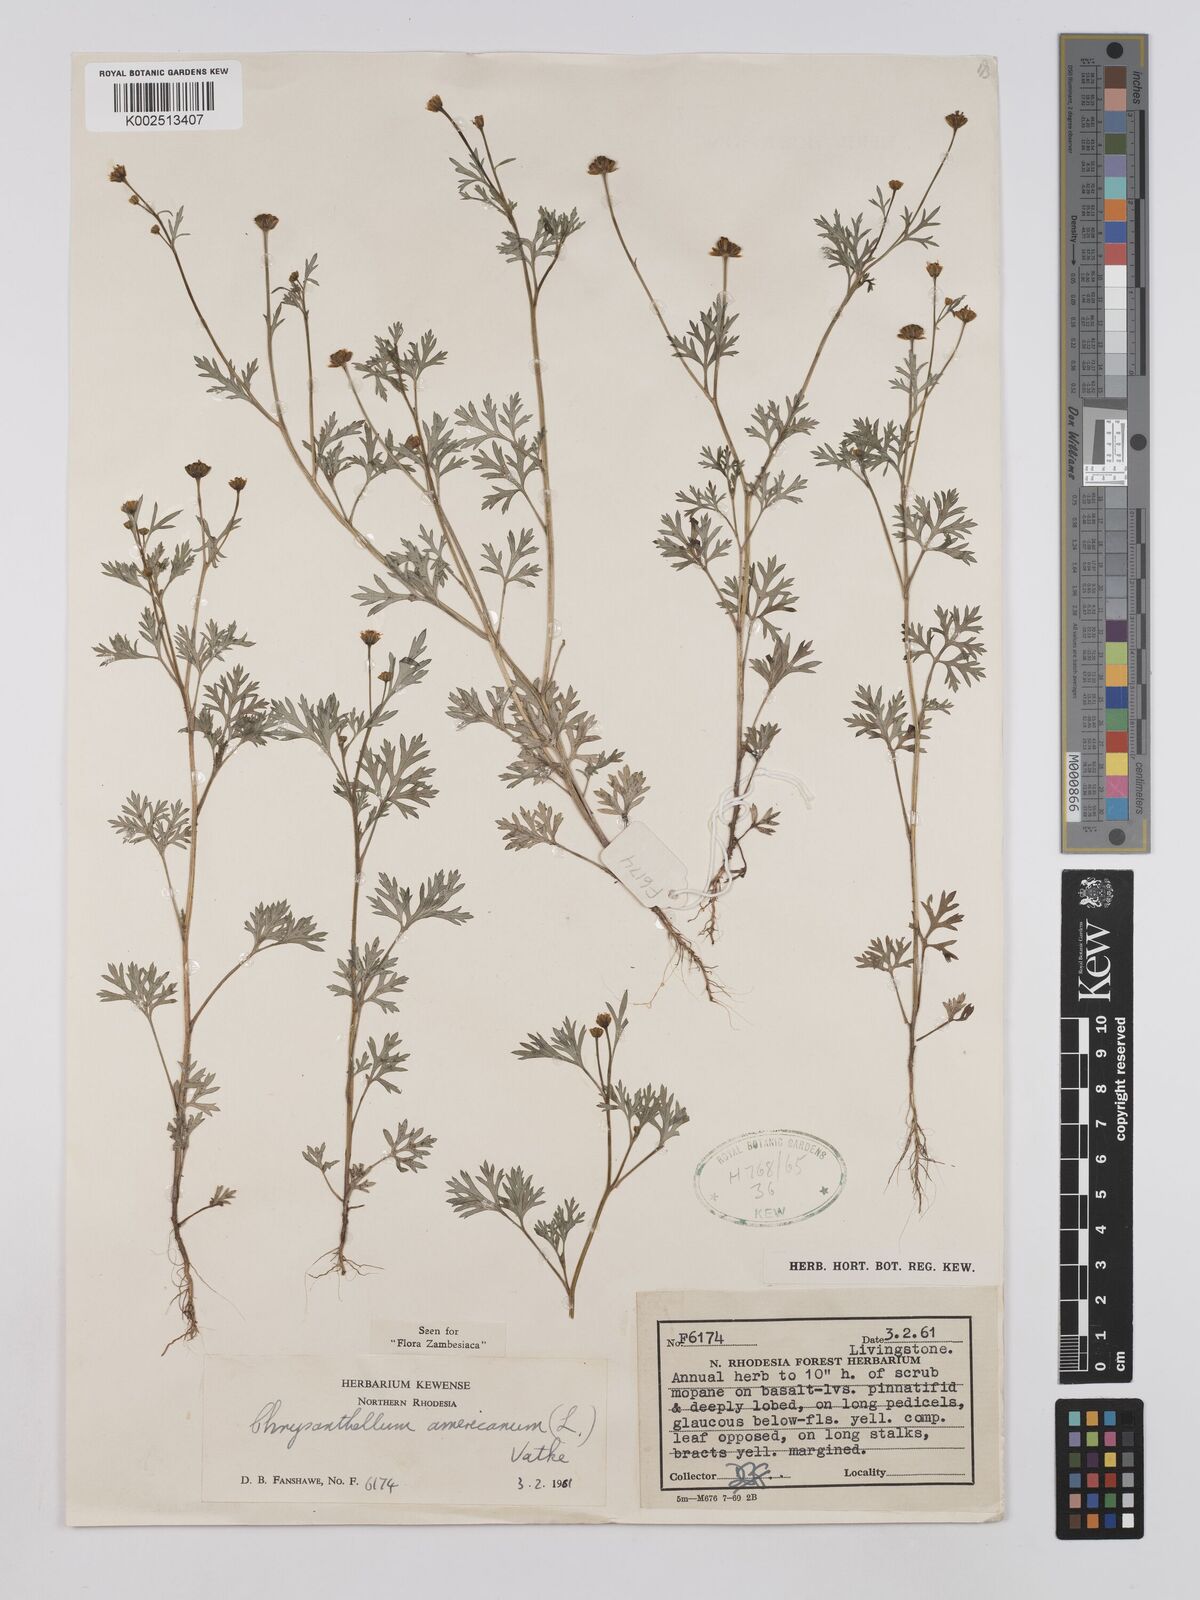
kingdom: Plantae
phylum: Tracheophyta
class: Magnoliopsida
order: Asterales
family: Asteraceae
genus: Chrysanthellum
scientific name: Chrysanthellum indicum
